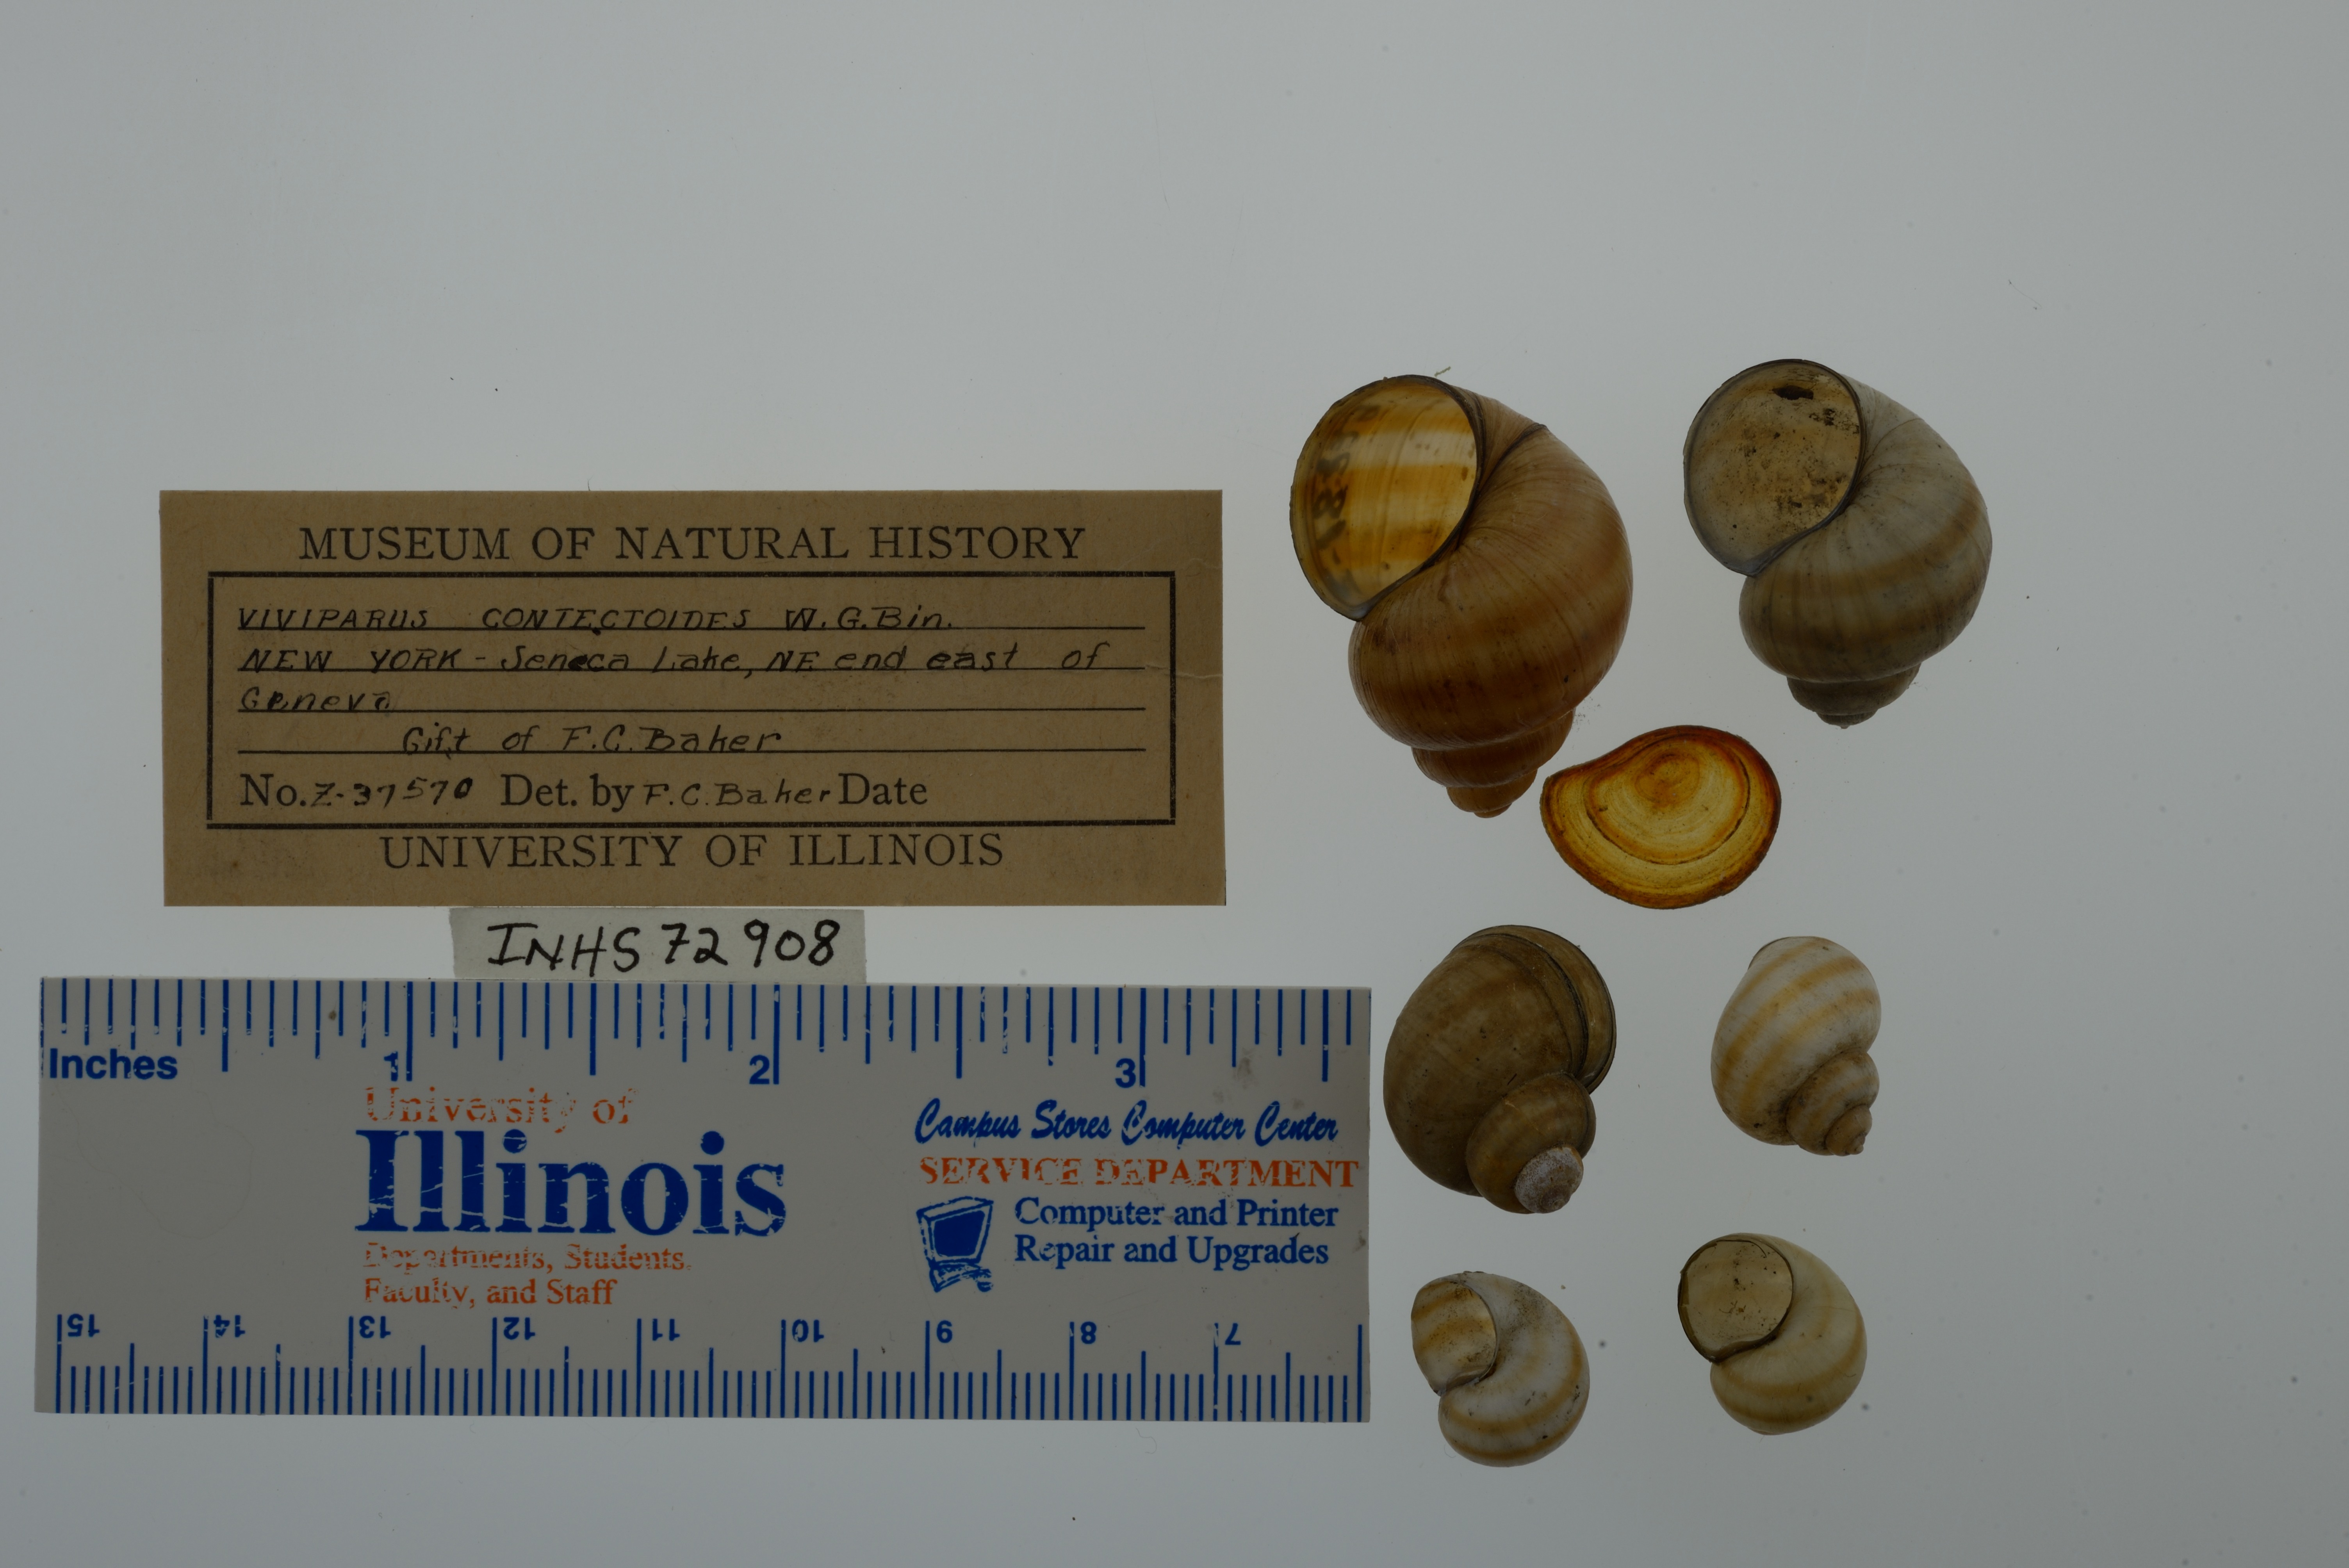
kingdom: Animalia
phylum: Mollusca
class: Gastropoda
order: Architaenioglossa
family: Viviparidae
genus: Callinina
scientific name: Callinina georgiana
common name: Banded mystery snail
